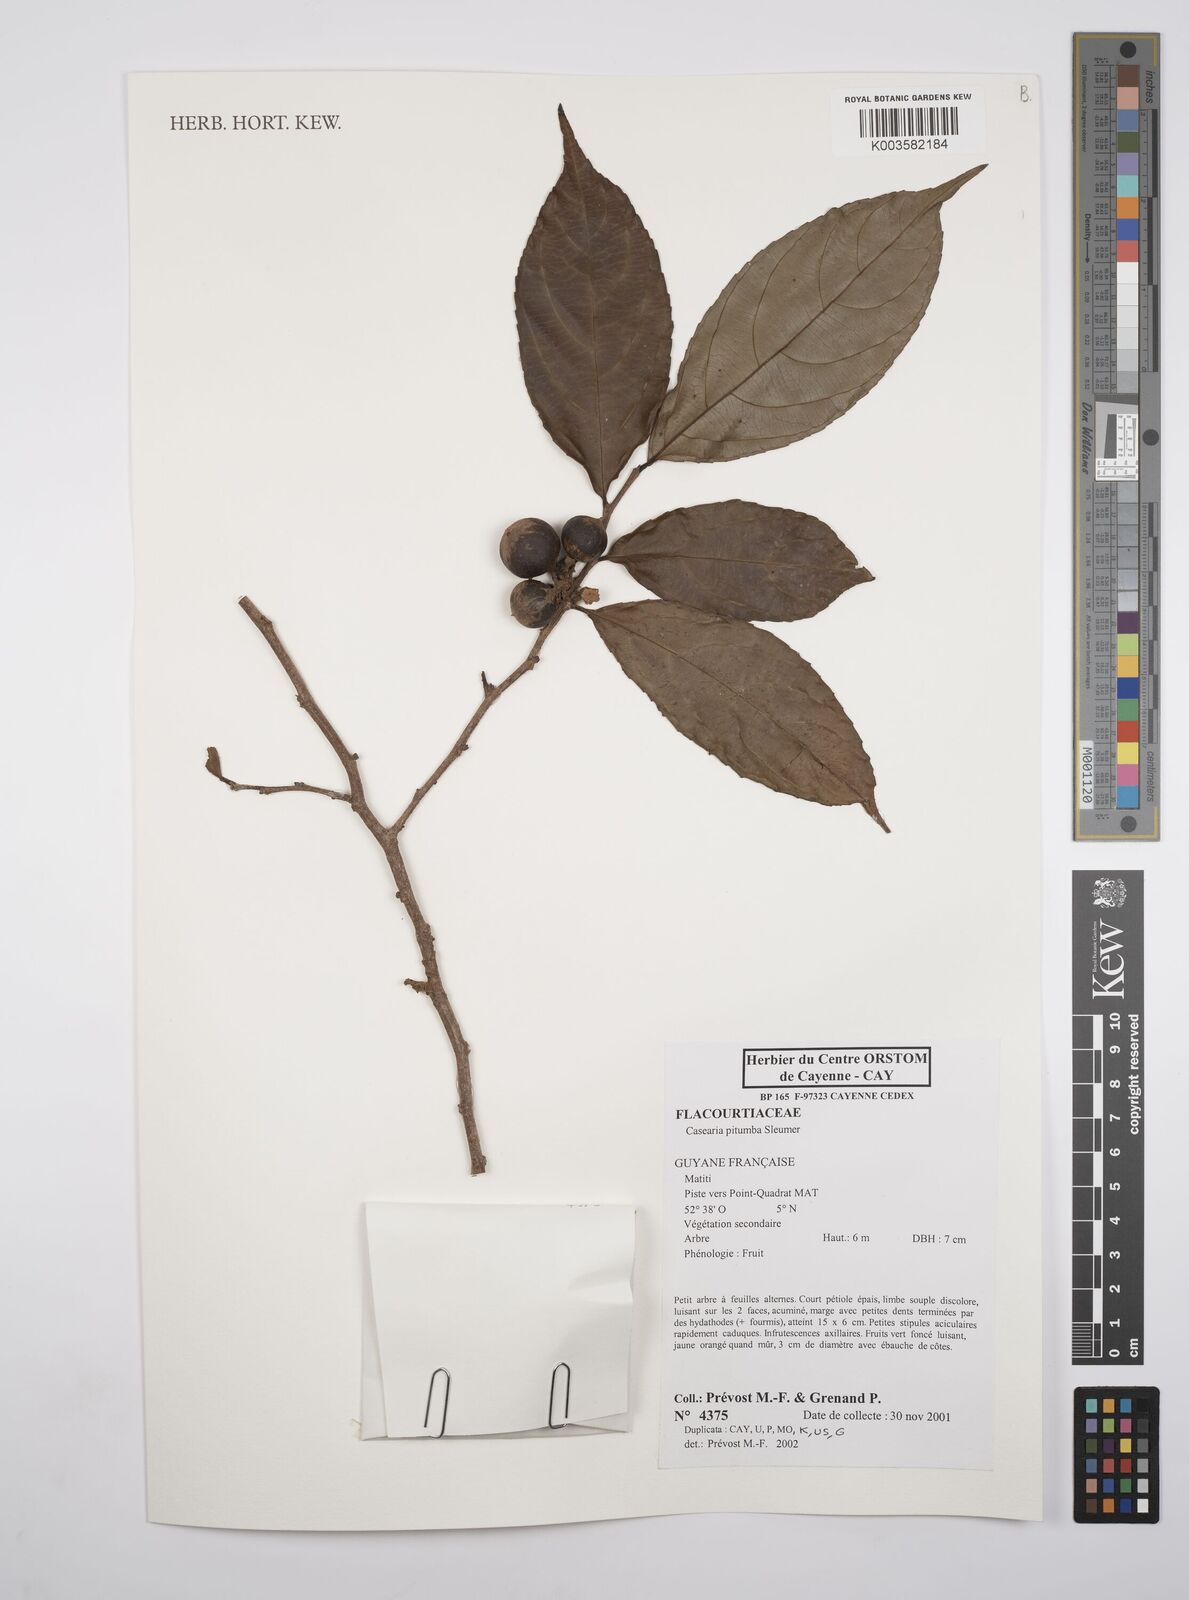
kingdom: Plantae
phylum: Tracheophyta
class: Magnoliopsida
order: Malpighiales
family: Salicaceae
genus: Casearia
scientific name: Casearia pitumba
